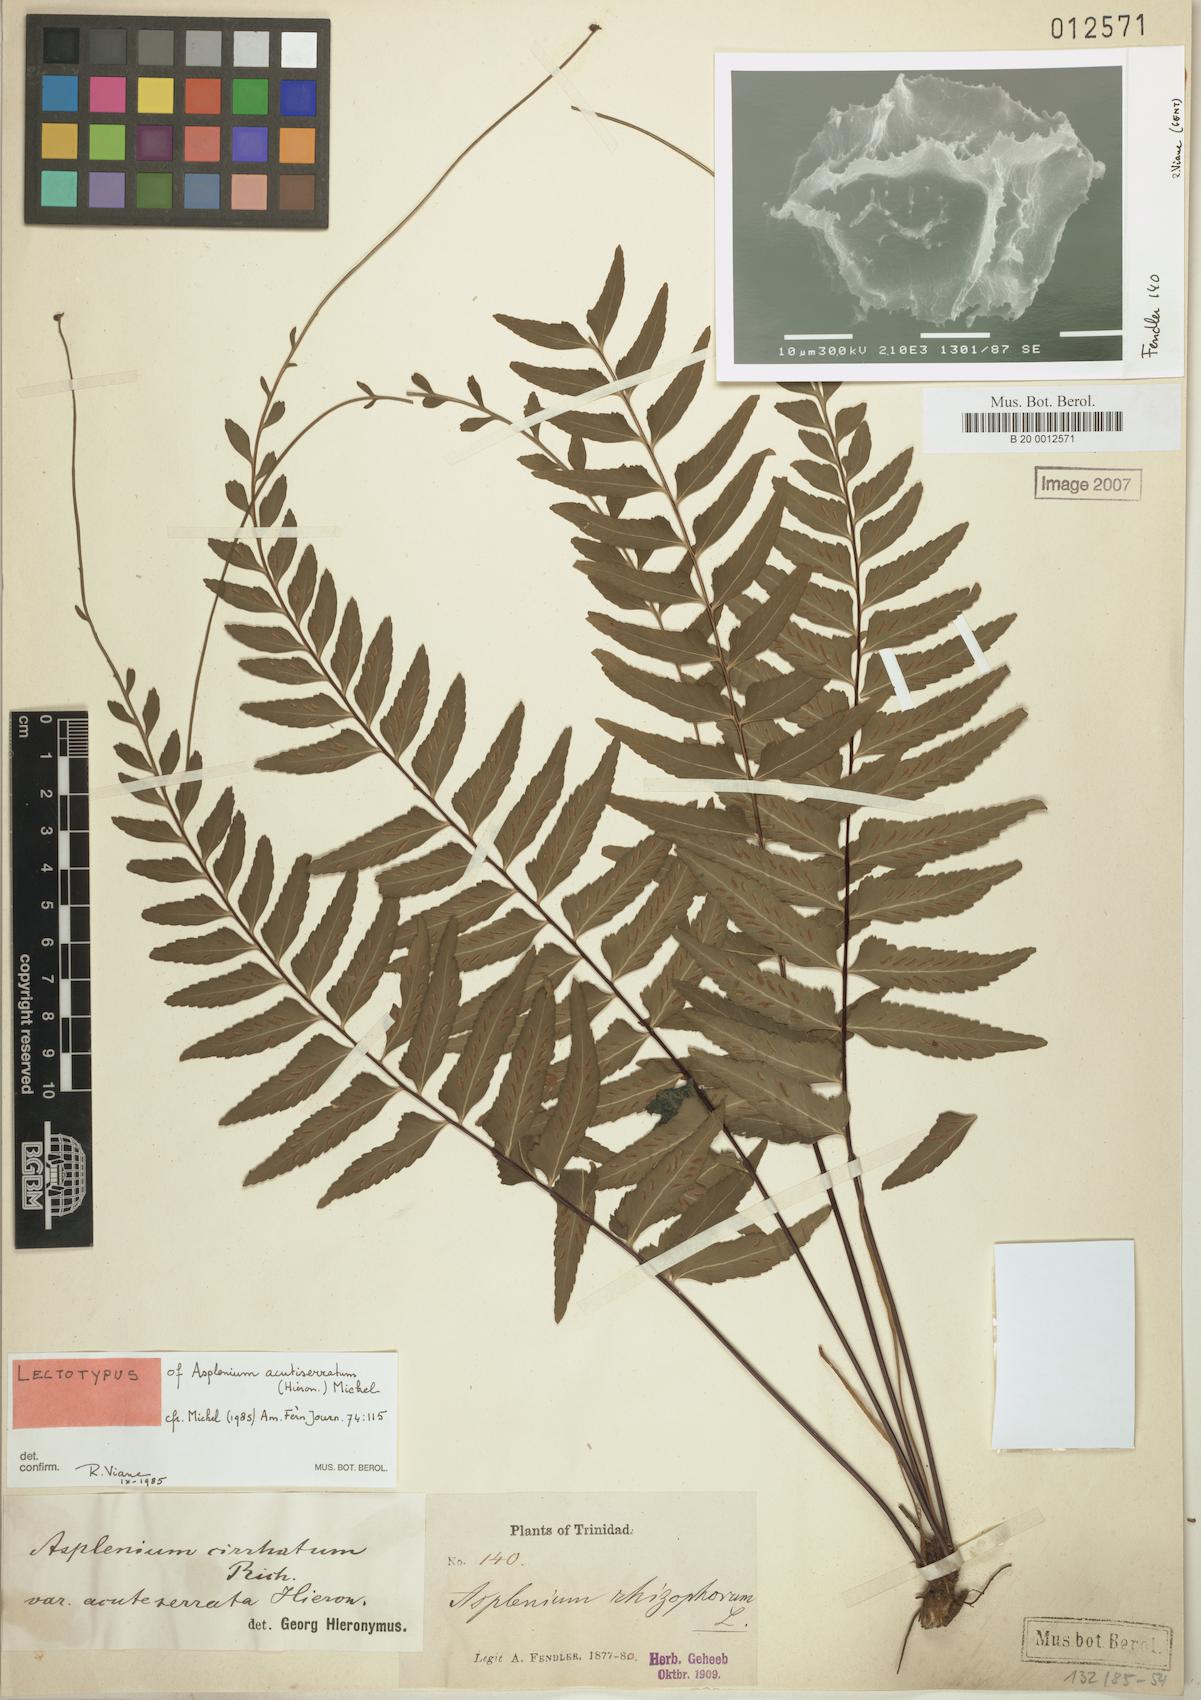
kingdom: Plantae
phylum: Tracheophyta
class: Polypodiopsida
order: Polypodiales
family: Aspleniaceae
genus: Asplenium
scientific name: Asplenium cirrhatum
